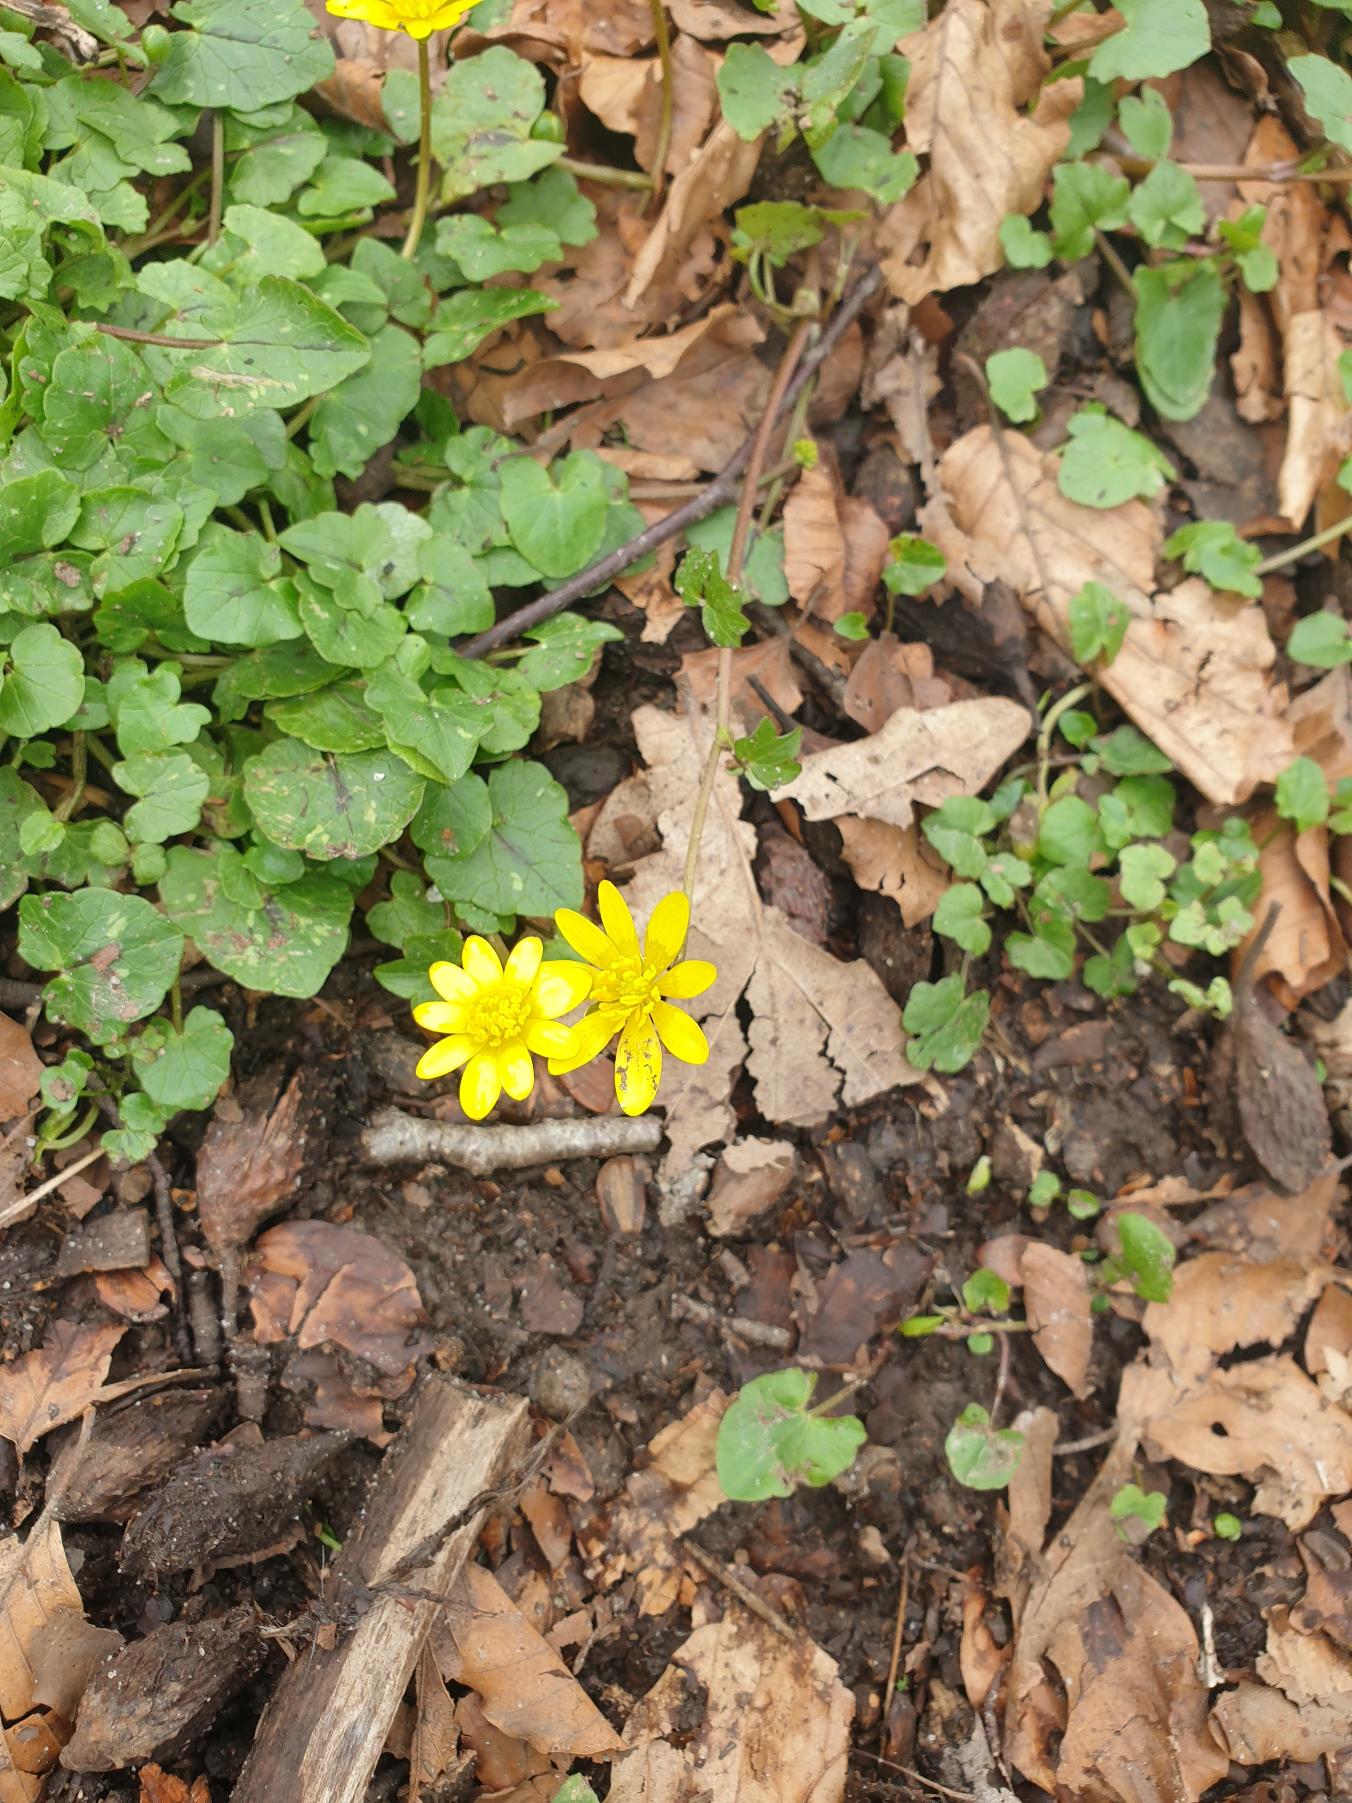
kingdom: Plantae
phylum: Tracheophyta
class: Magnoliopsida
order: Ranunculales
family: Ranunculaceae
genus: Ficaria
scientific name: Ficaria verna
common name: Vorterod
